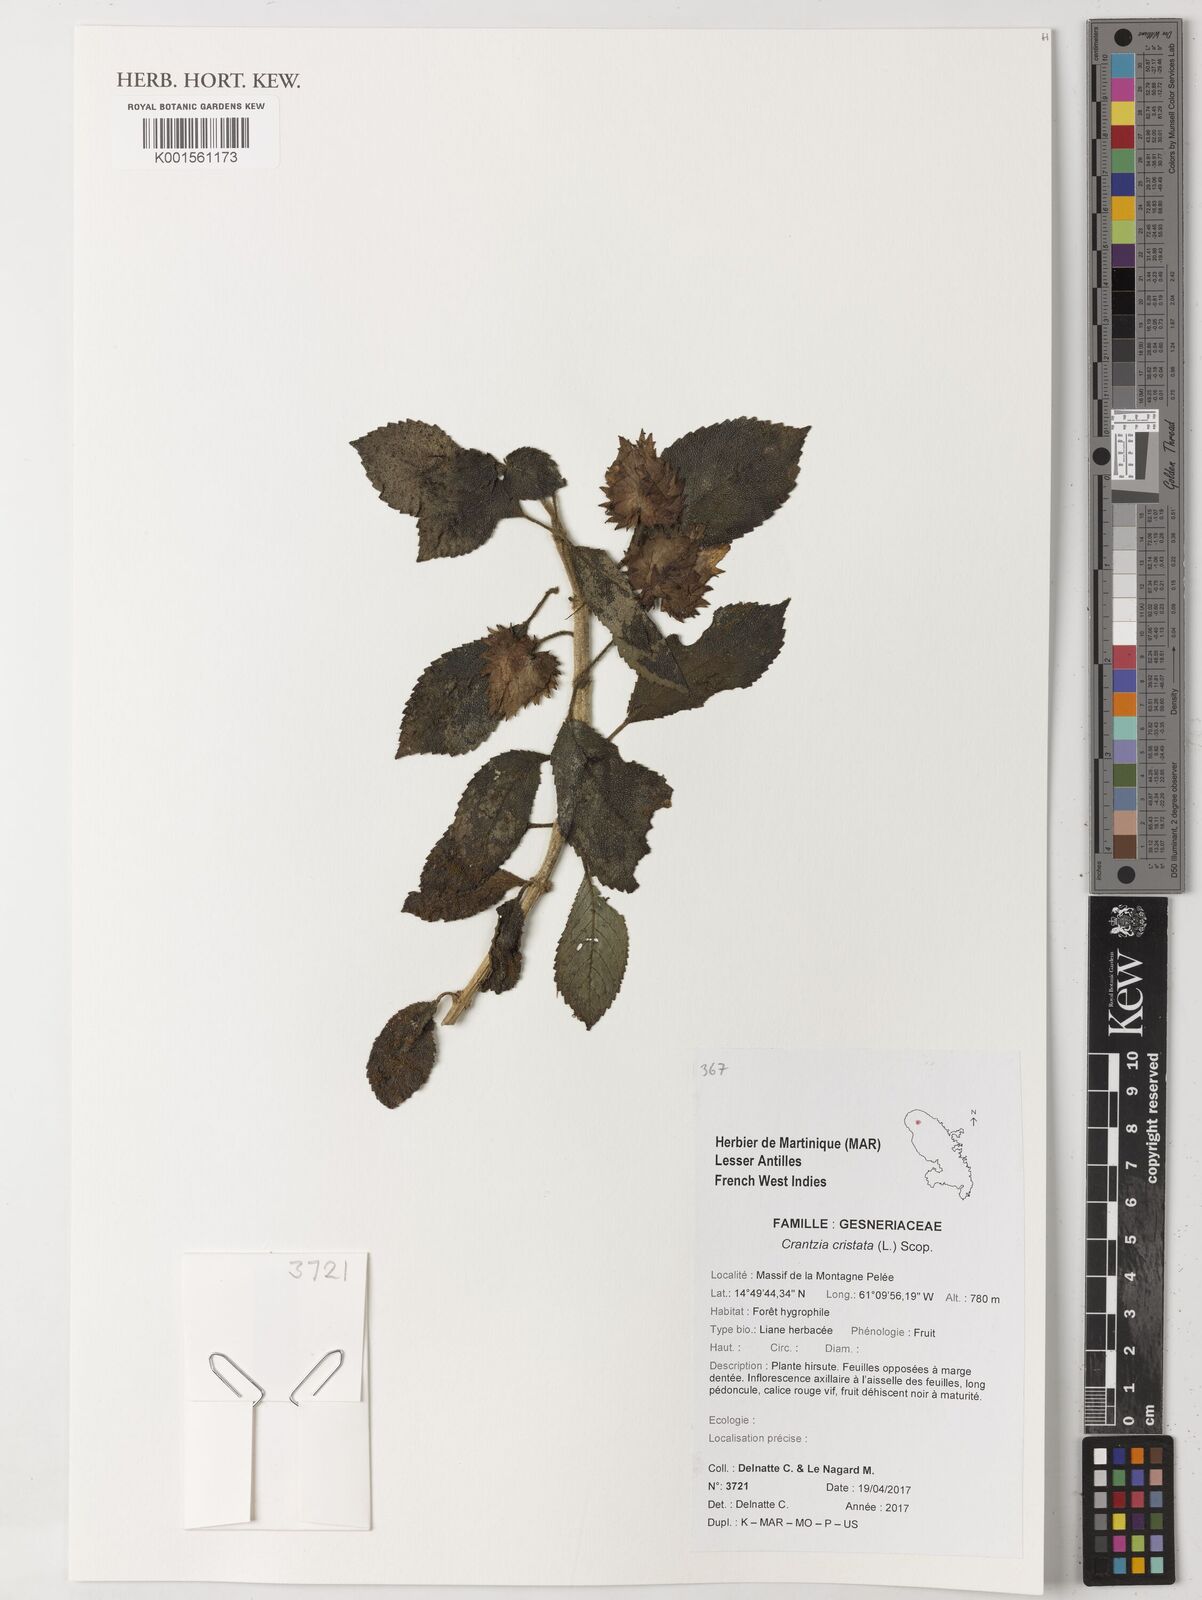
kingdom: Plantae
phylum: Tracheophyta
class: Magnoliopsida
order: Lamiales
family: Gesneriaceae
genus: Crantzia
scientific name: Crantzia cristata
